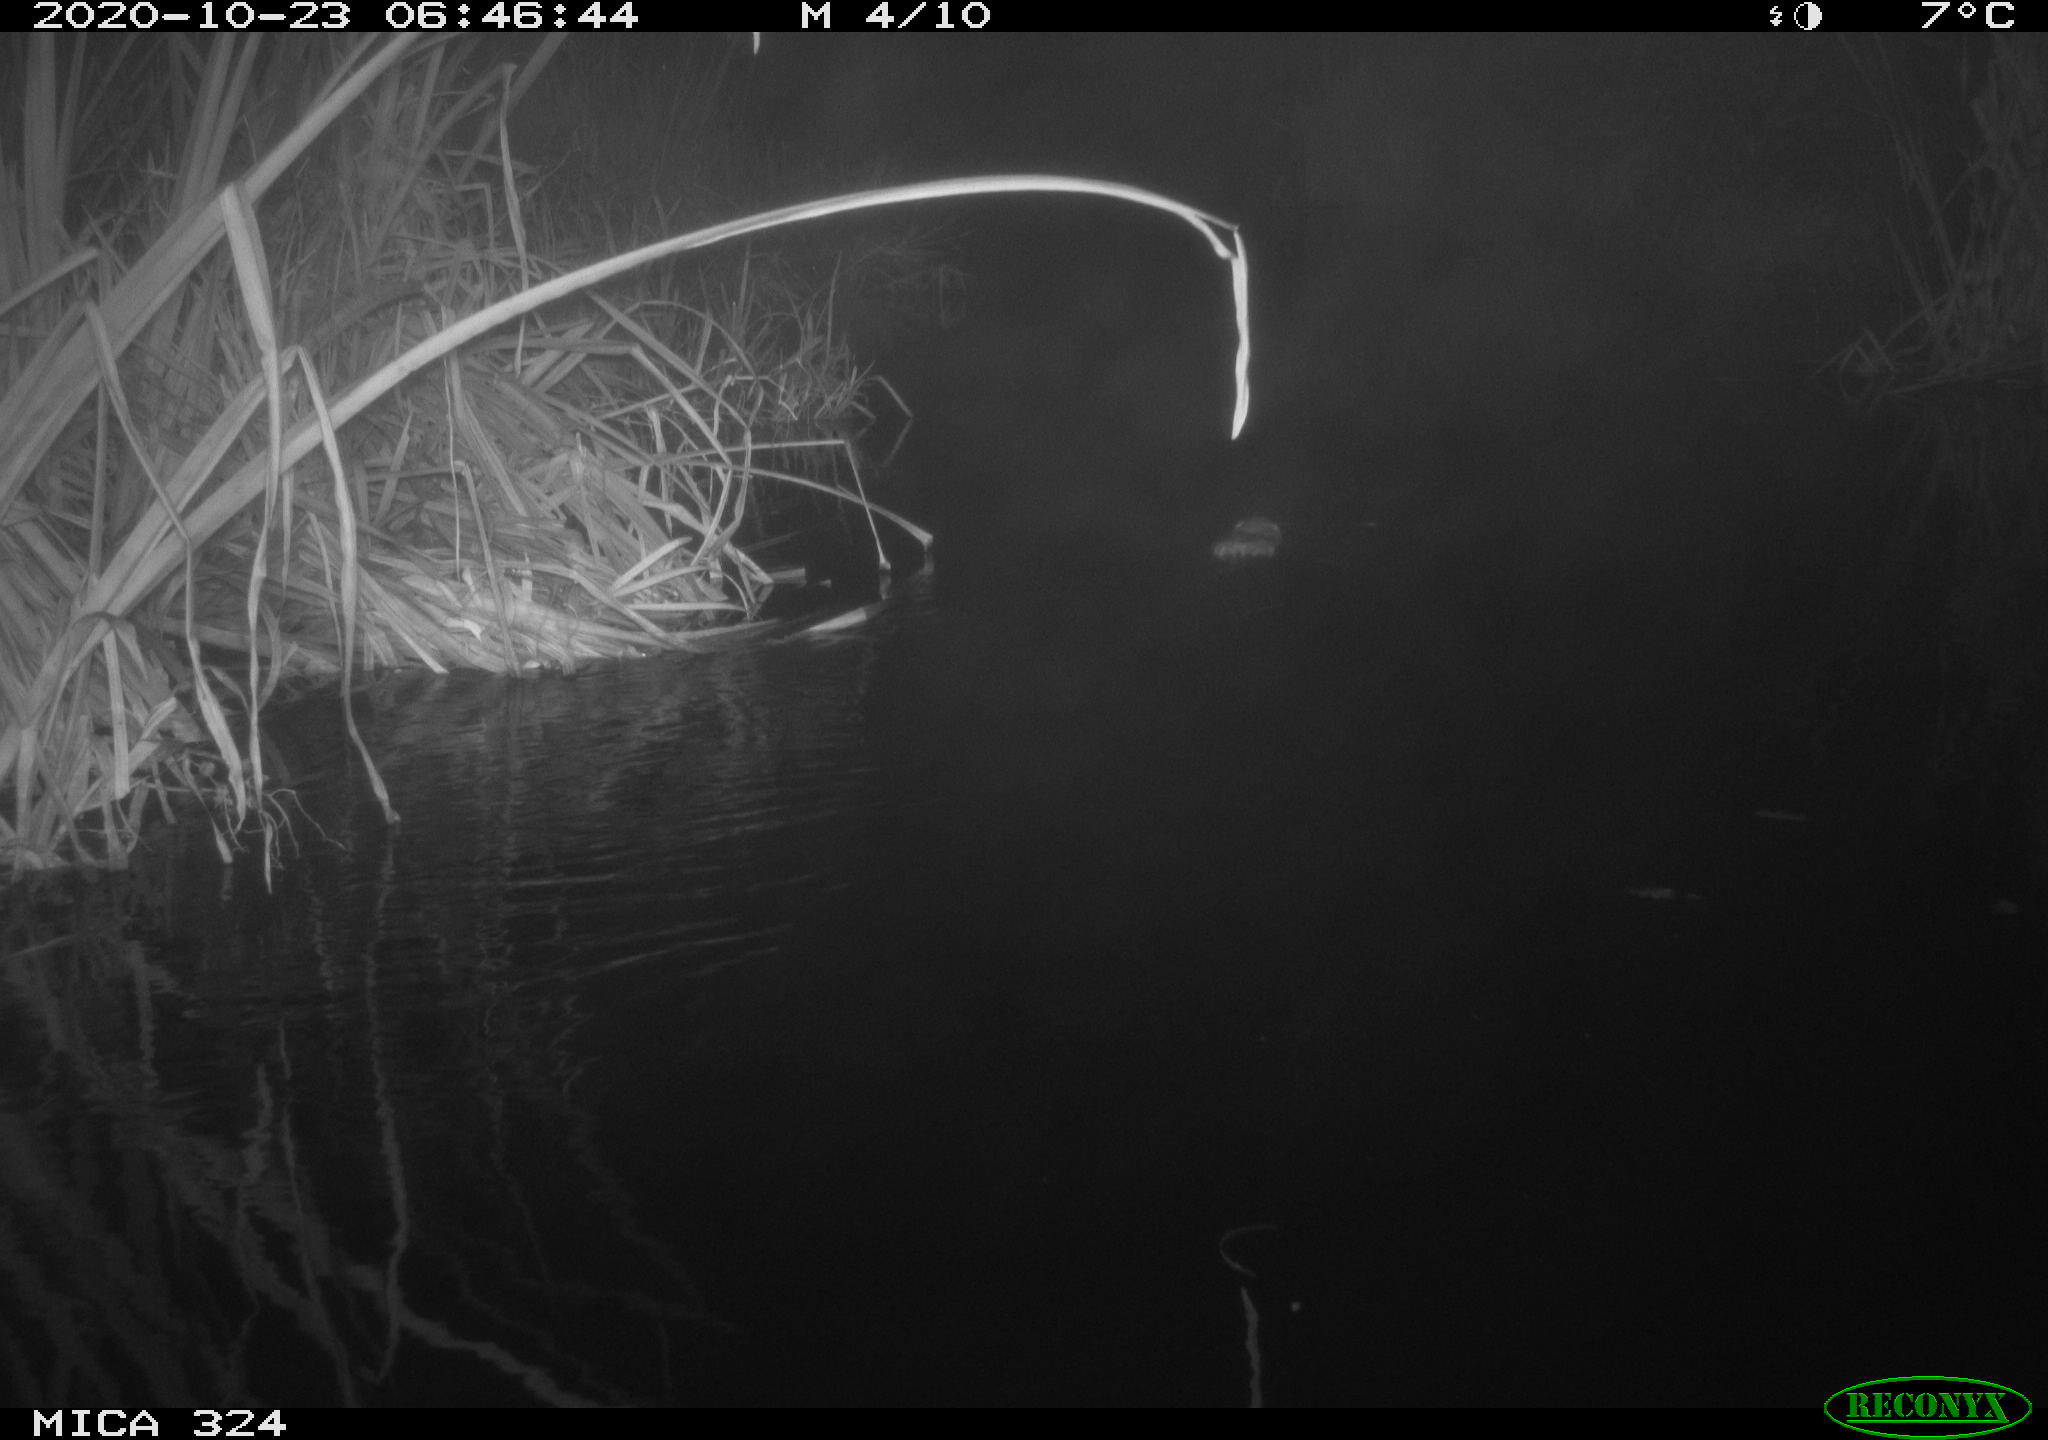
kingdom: Animalia
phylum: Chordata
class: Mammalia
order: Rodentia
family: Cricetidae
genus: Ondatra
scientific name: Ondatra zibethicus
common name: Muskrat
